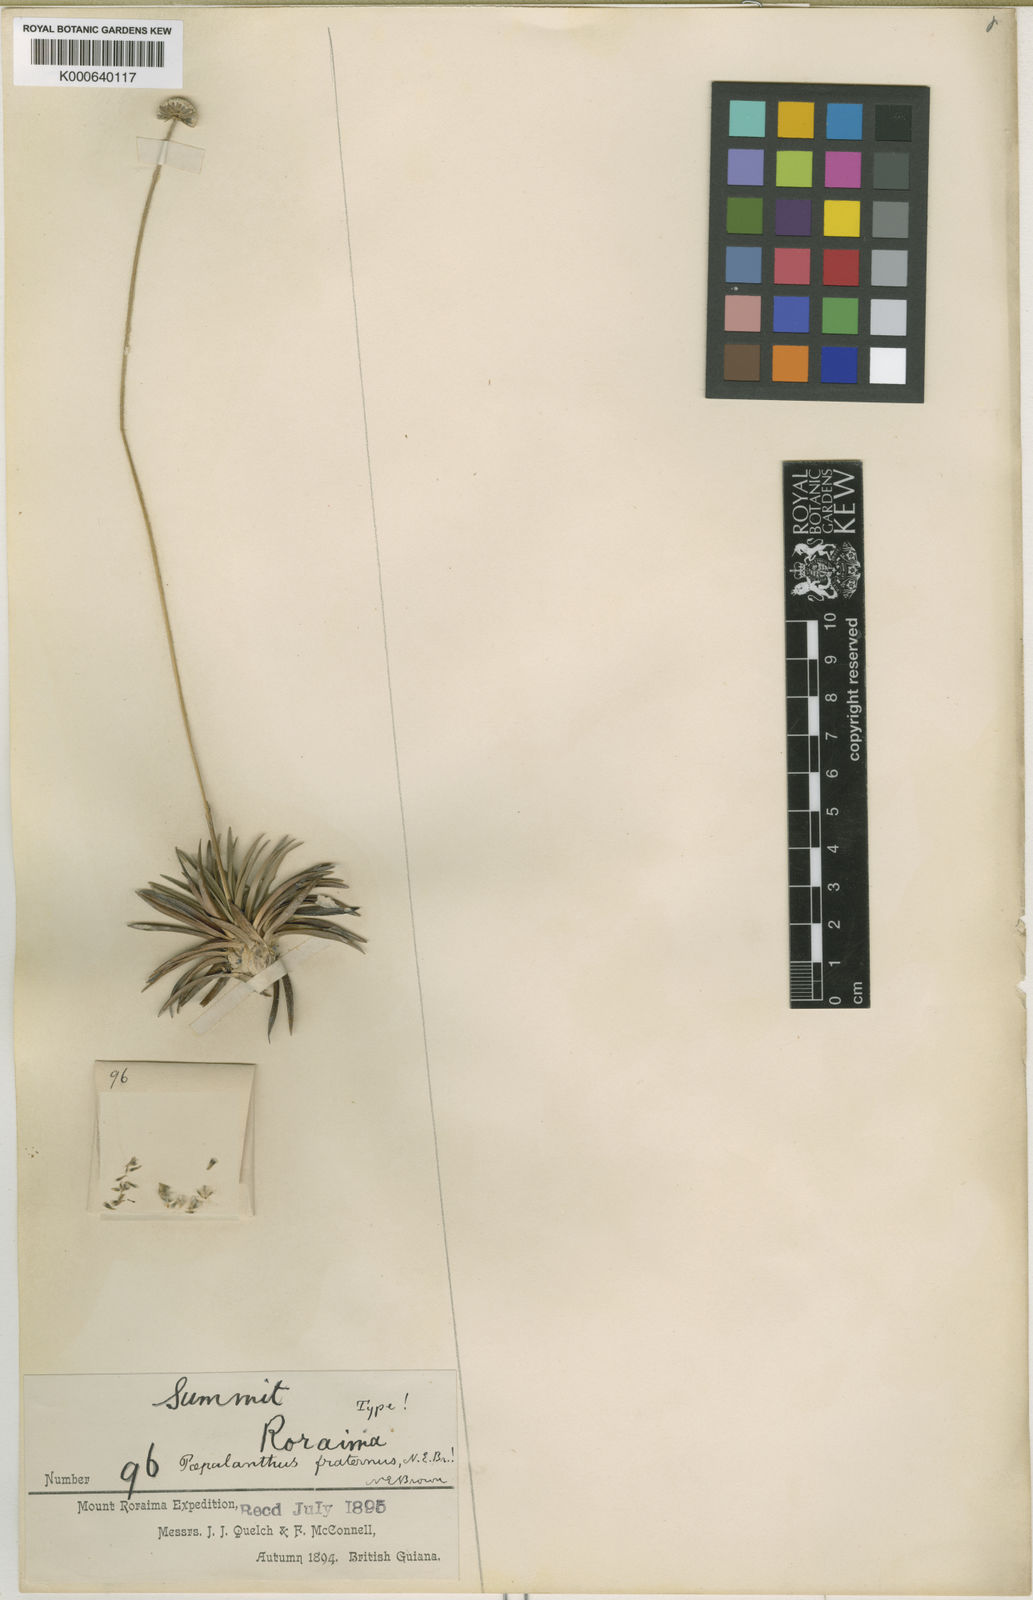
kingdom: Plantae
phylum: Tracheophyta
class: Liliopsida
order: Poales
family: Eriocaulaceae
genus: Paepalanthus
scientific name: Paepalanthus fraternus
